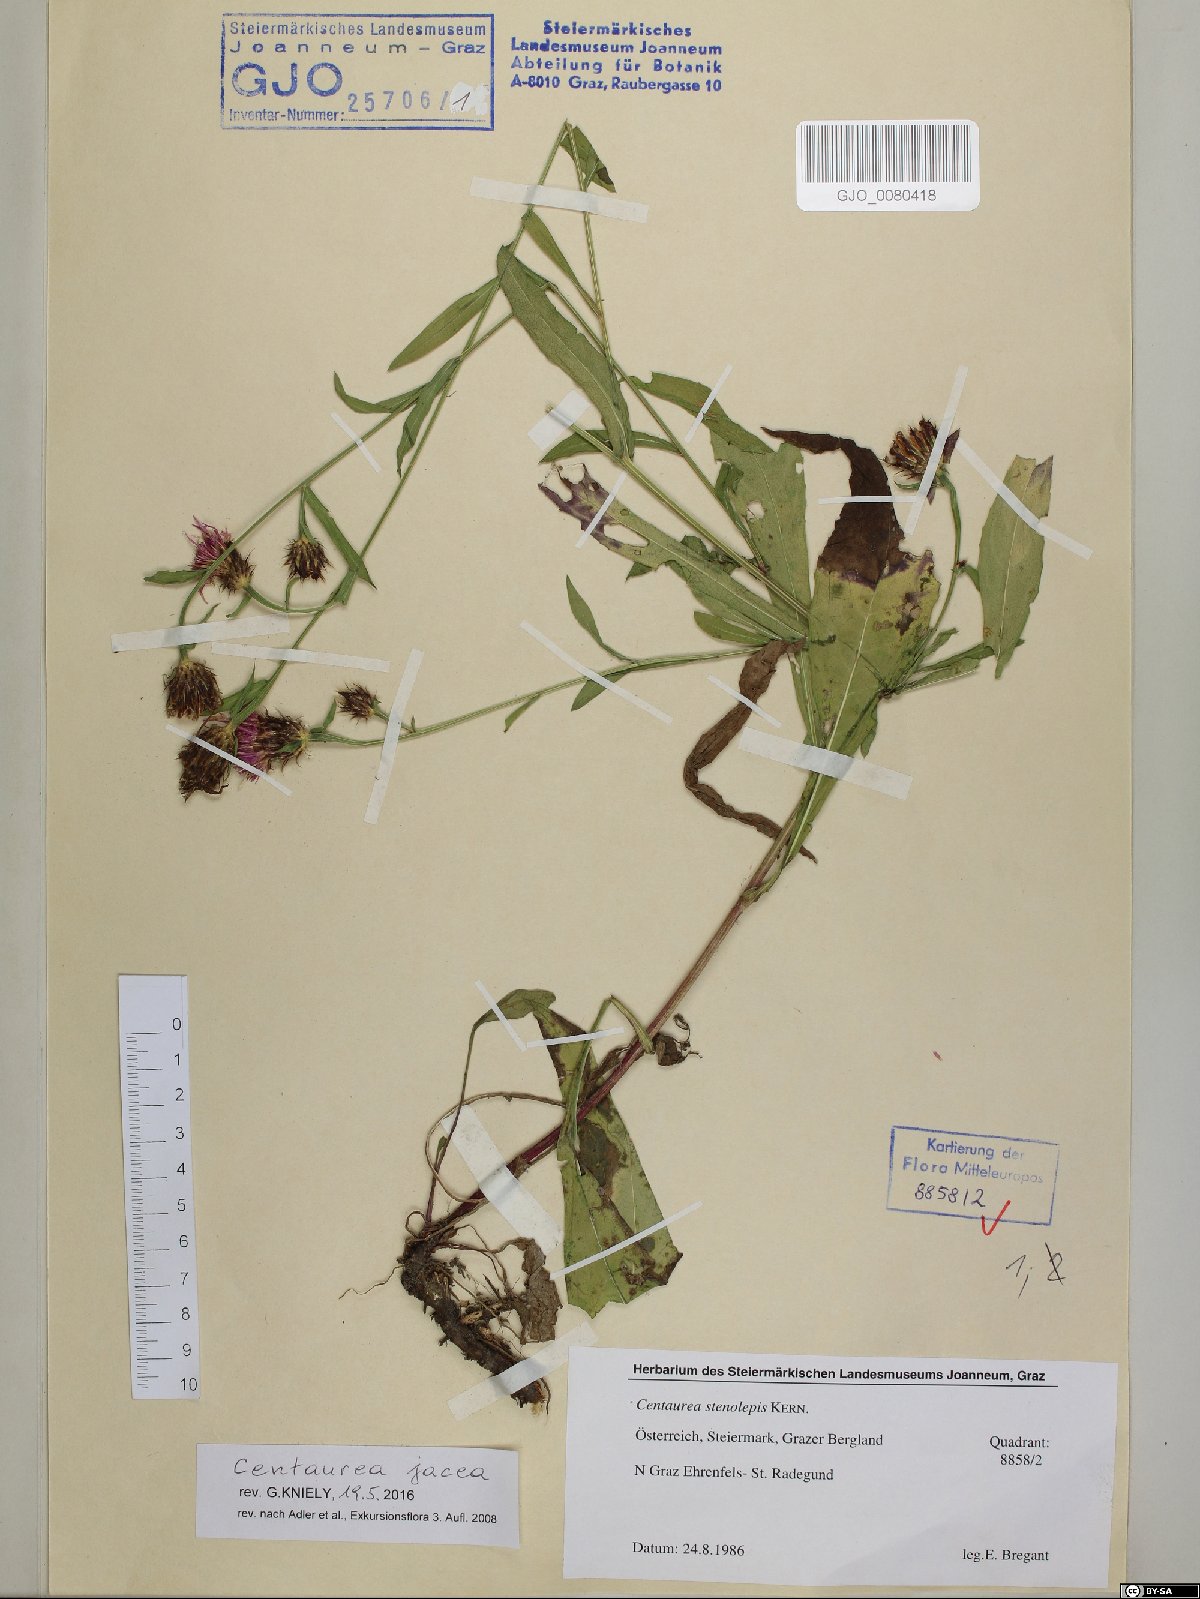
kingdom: Plantae
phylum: Tracheophyta
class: Magnoliopsida
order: Asterales
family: Asteraceae
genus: Centaurea
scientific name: Centaurea jacea
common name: Brown knapweed
